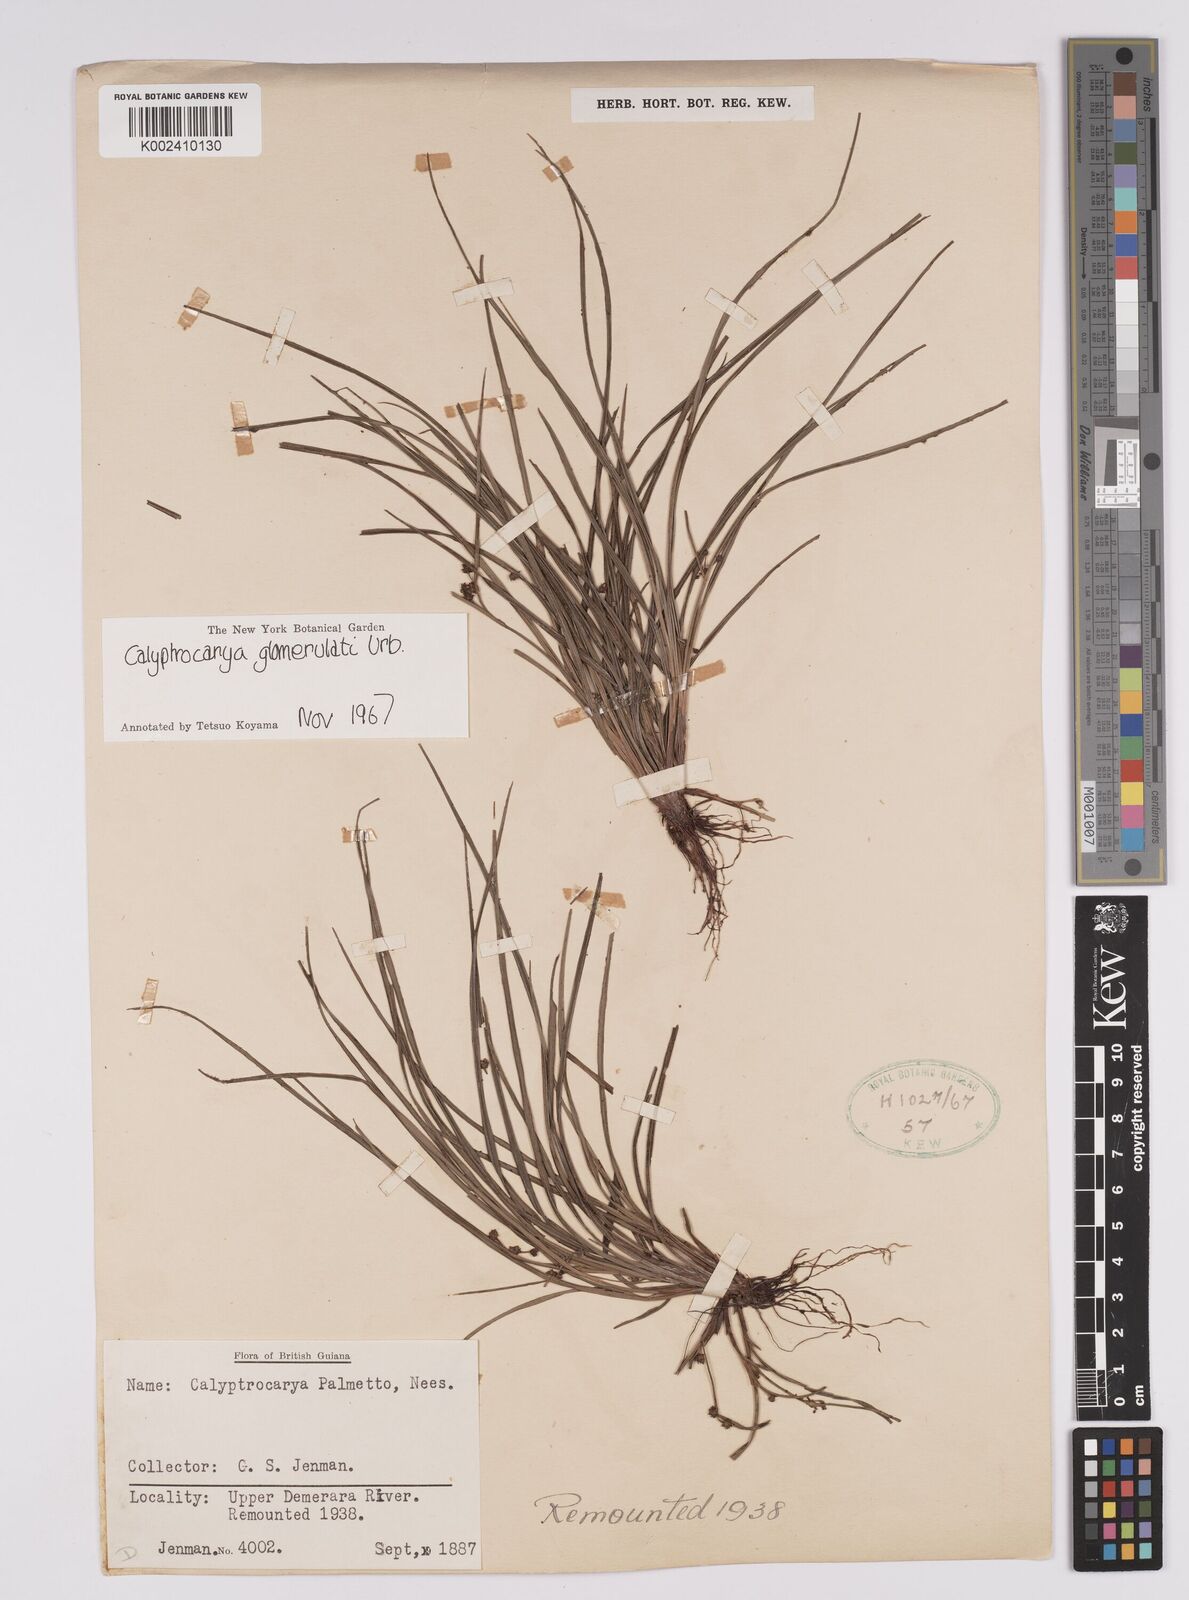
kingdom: Plantae
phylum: Tracheophyta
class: Liliopsida
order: Poales
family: Cyperaceae
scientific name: Cyperaceae
